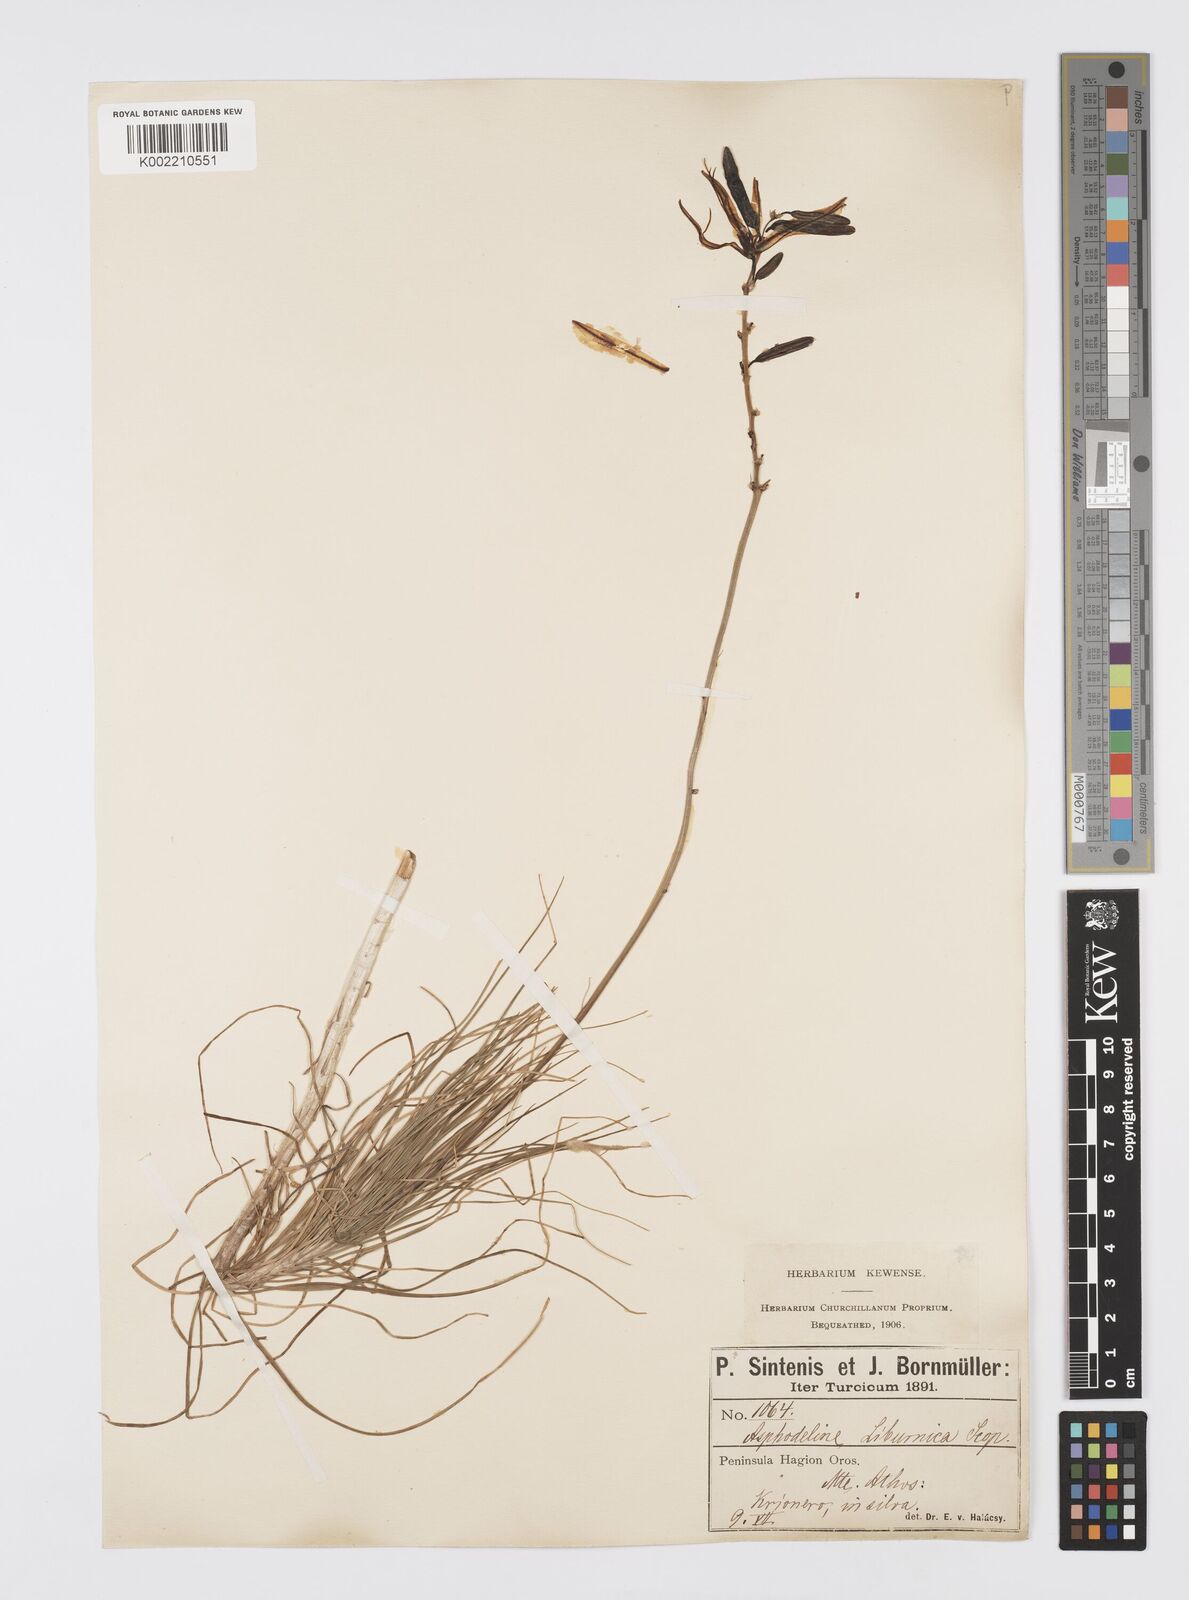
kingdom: Plantae
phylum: Tracheophyta
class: Liliopsida
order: Asparagales
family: Asphodelaceae
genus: Asphodeline
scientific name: Asphodeline liburnica
